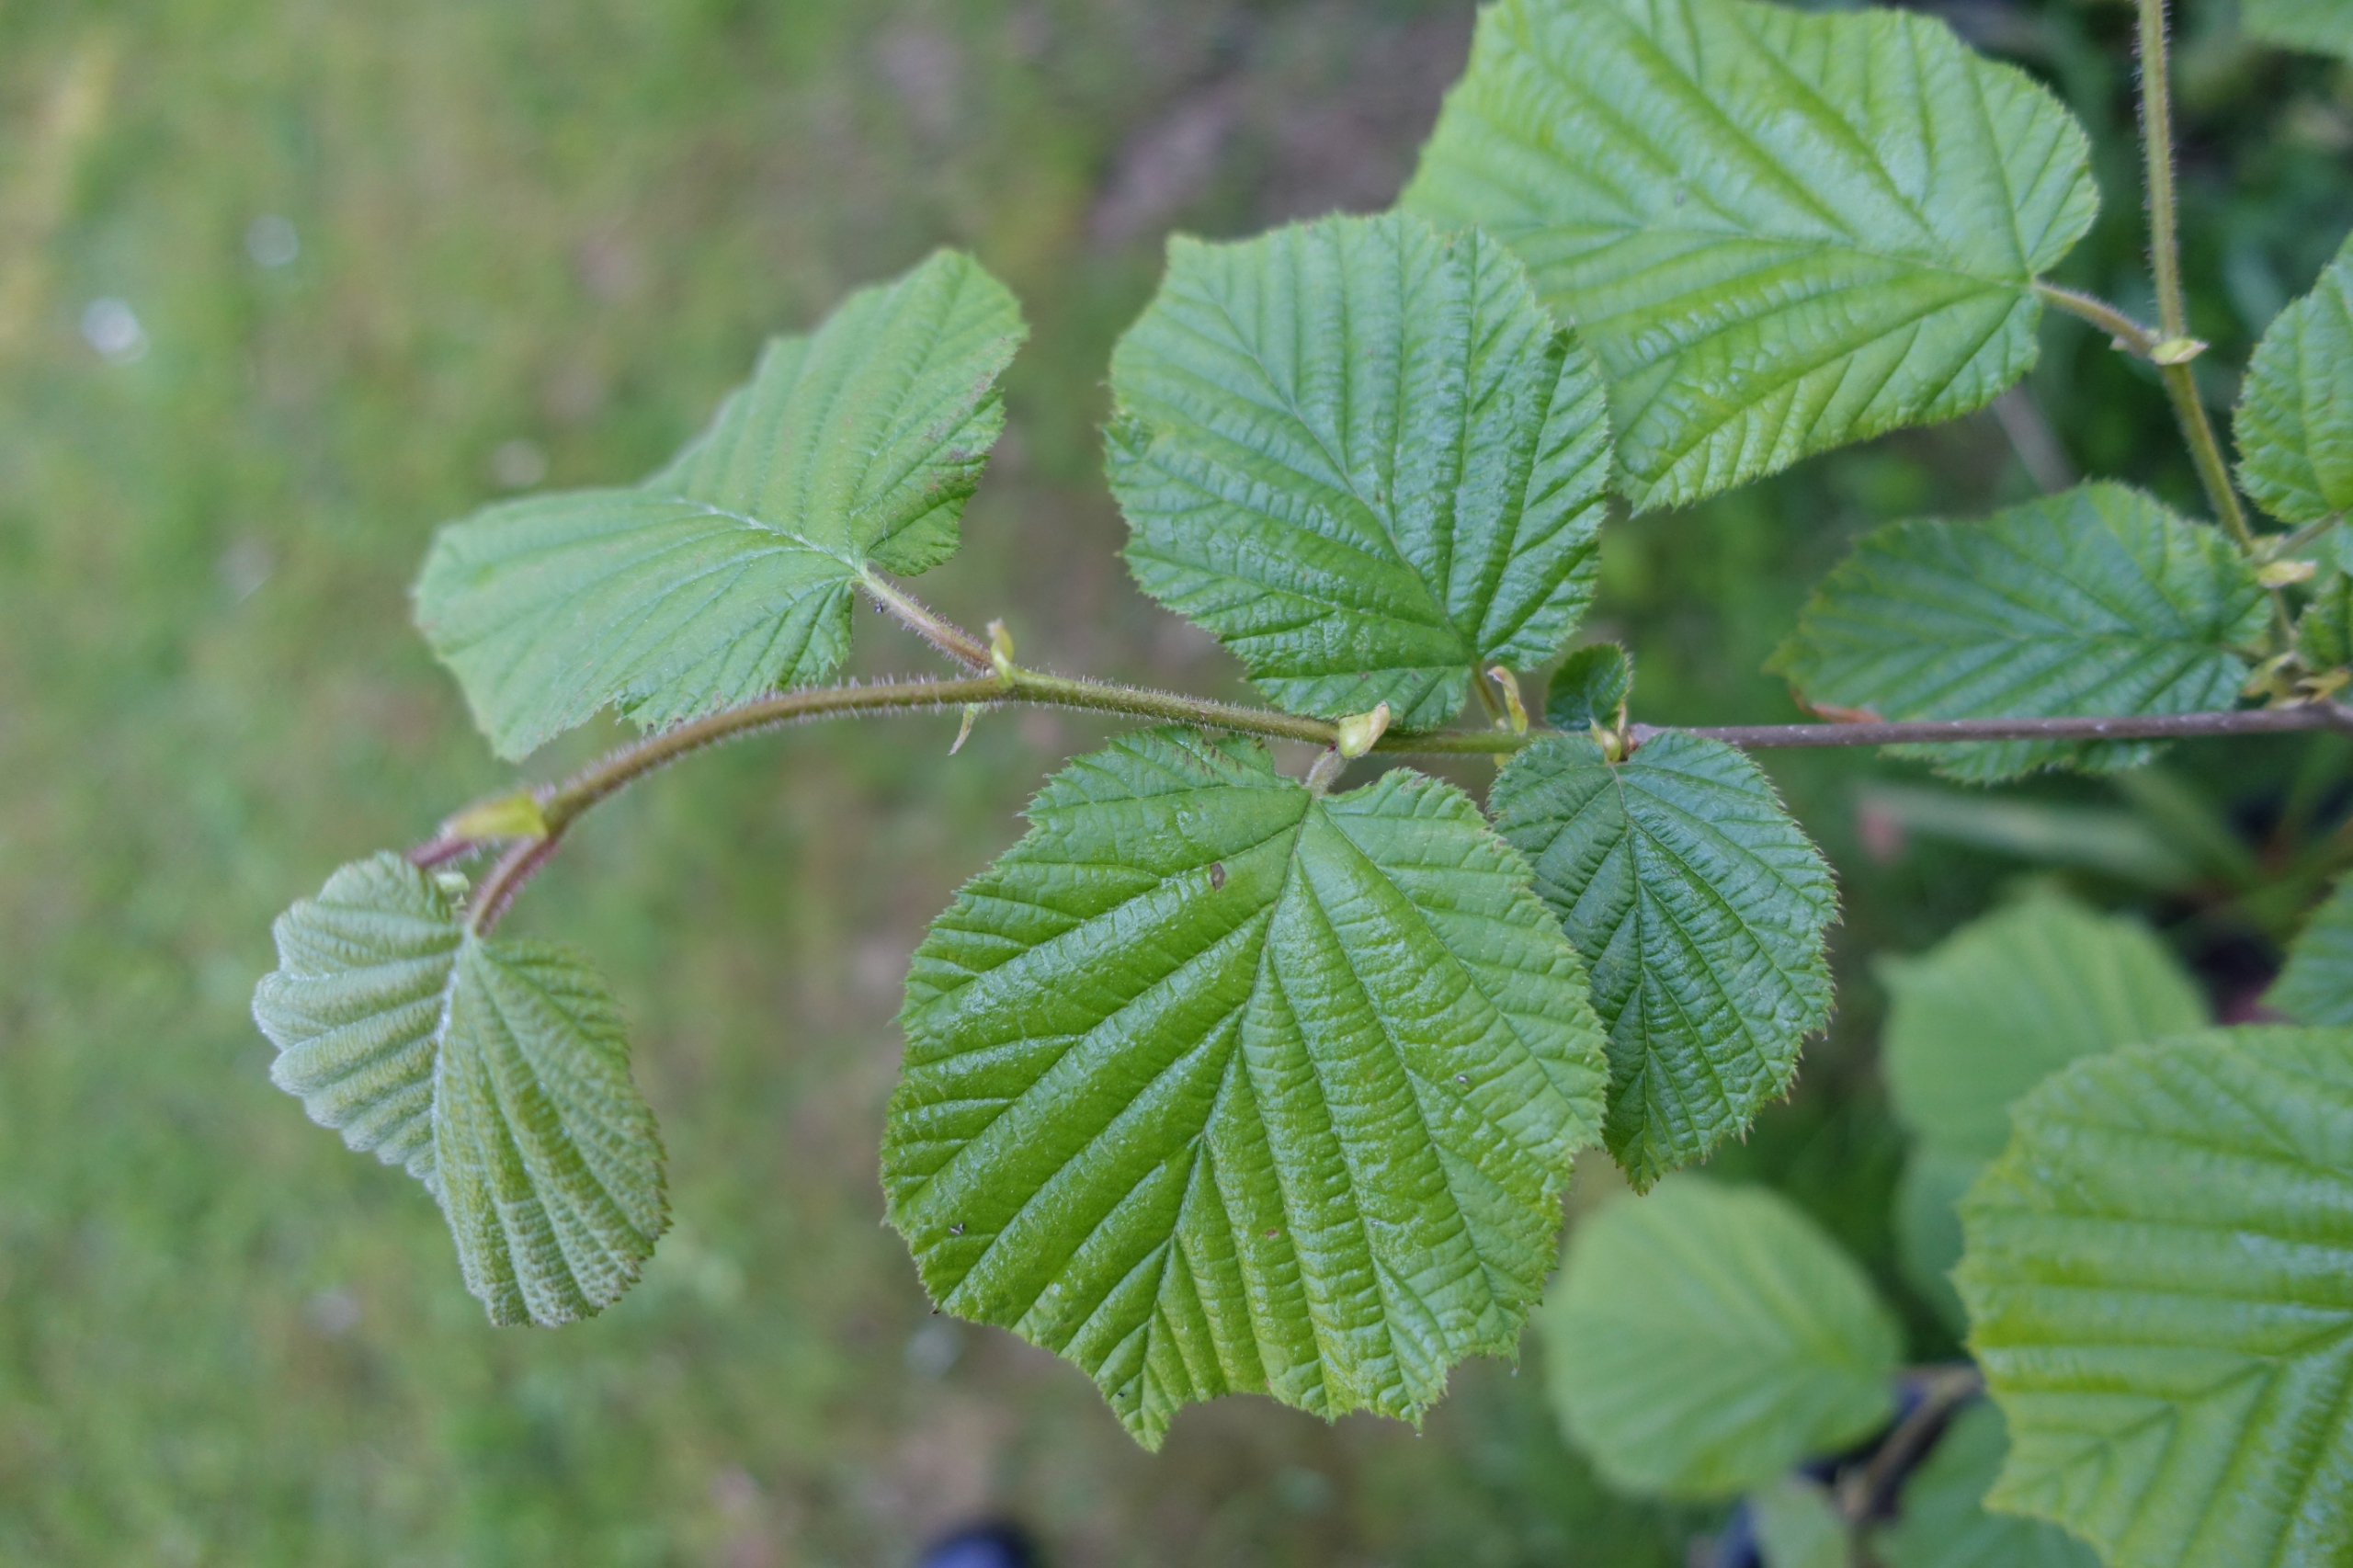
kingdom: Plantae
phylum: Tracheophyta
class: Magnoliopsida
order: Fagales
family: Betulaceae
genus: Corylus
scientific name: Corylus avellana
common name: Hassel
